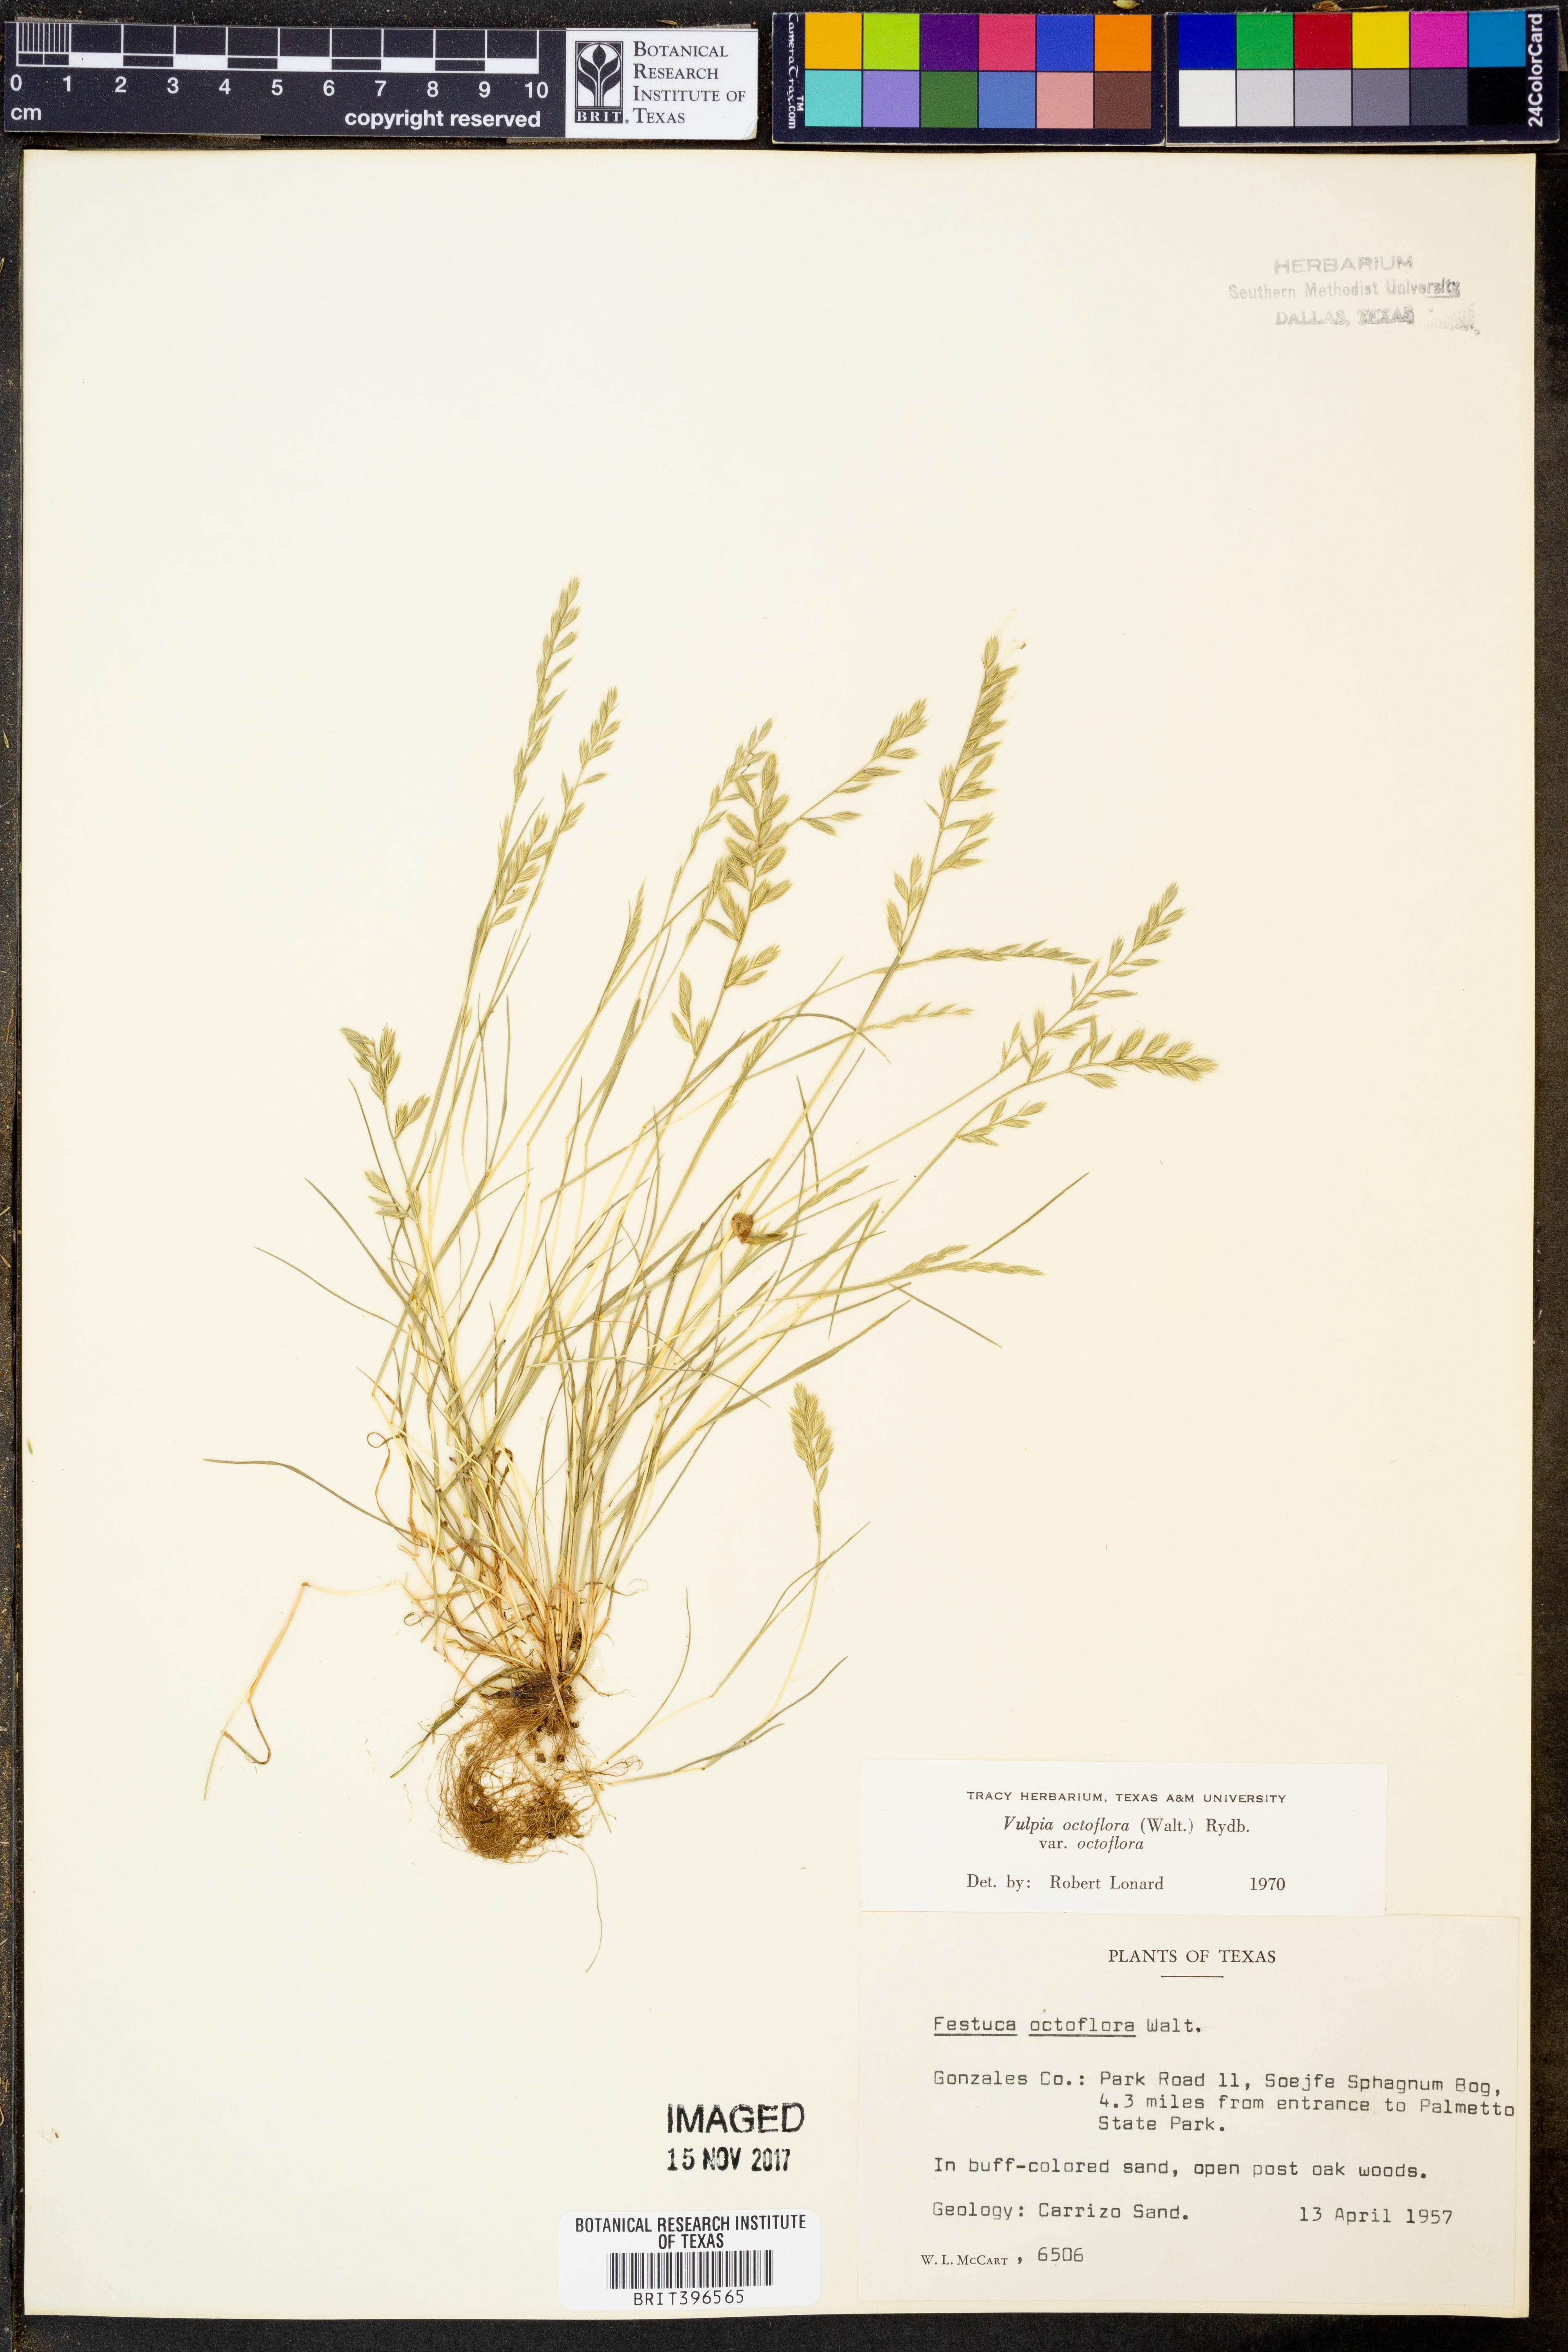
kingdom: Plantae
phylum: Tracheophyta
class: Liliopsida
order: Poales
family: Poaceae
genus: Festuca
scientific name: Festuca octoflora
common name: Sixweeks grass
